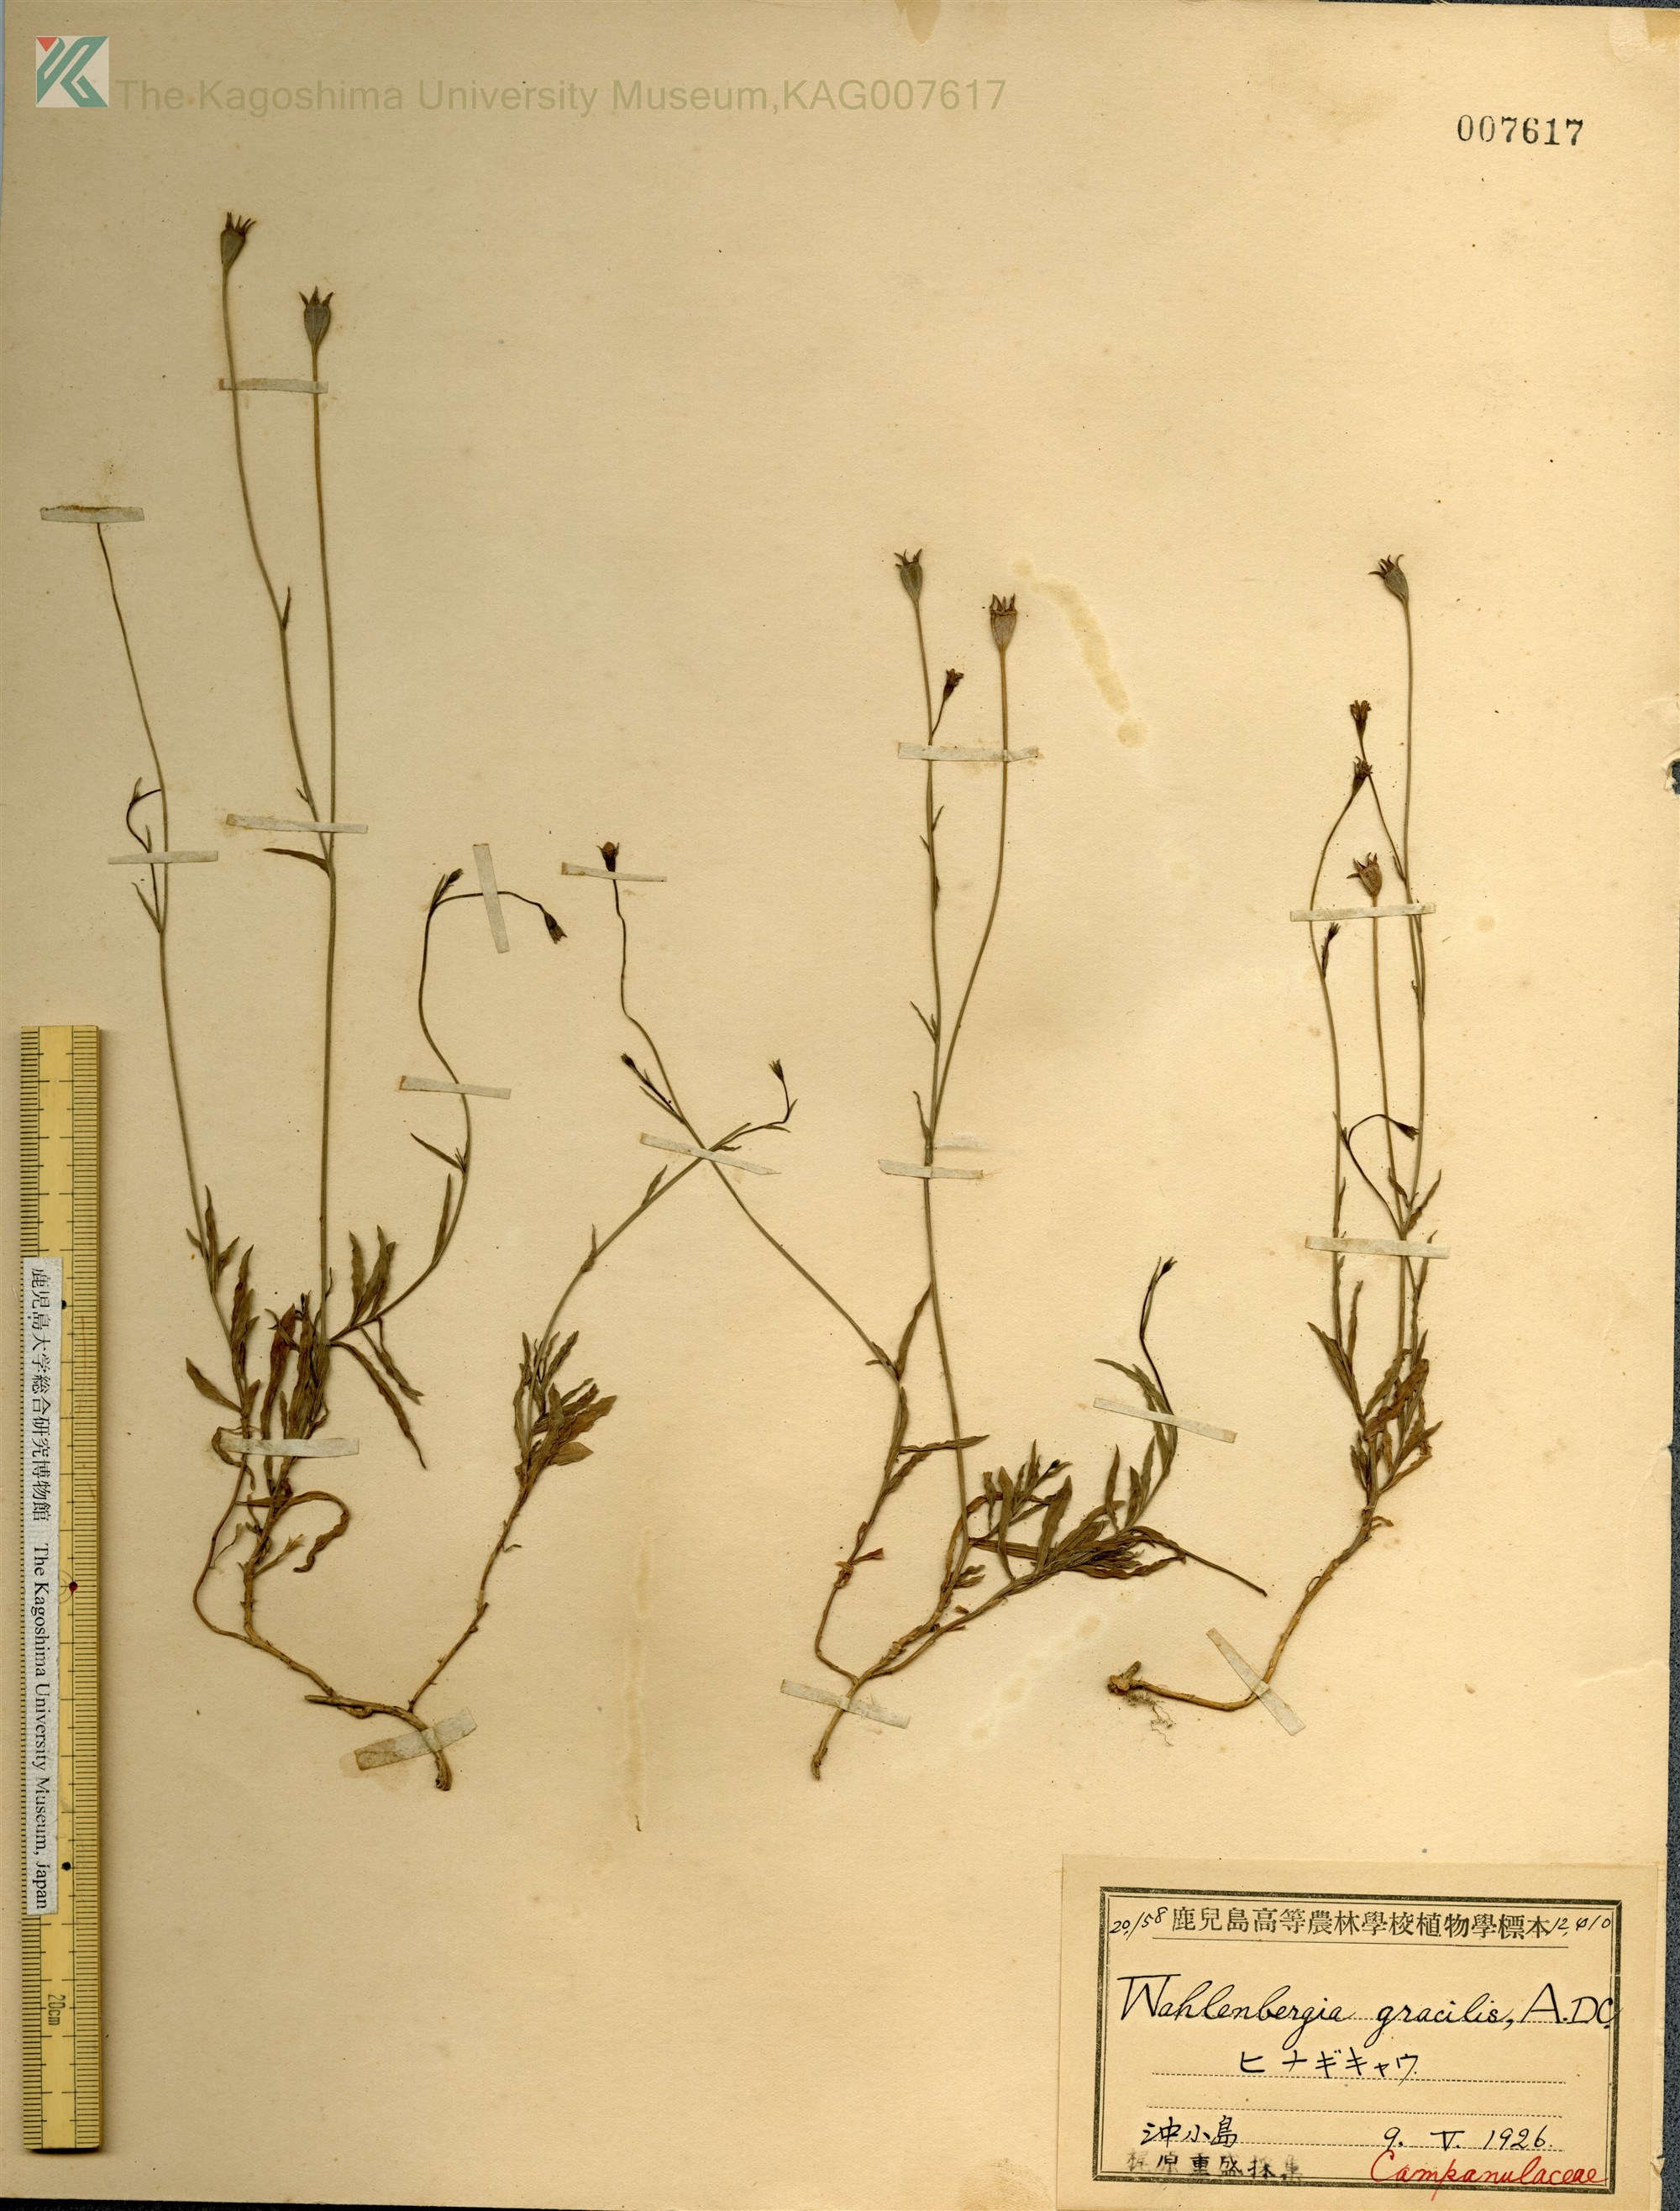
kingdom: Plantae
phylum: Tracheophyta
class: Magnoliopsida
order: Asterales
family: Campanulaceae
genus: Wahlenbergia
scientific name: Wahlenbergia marginata
